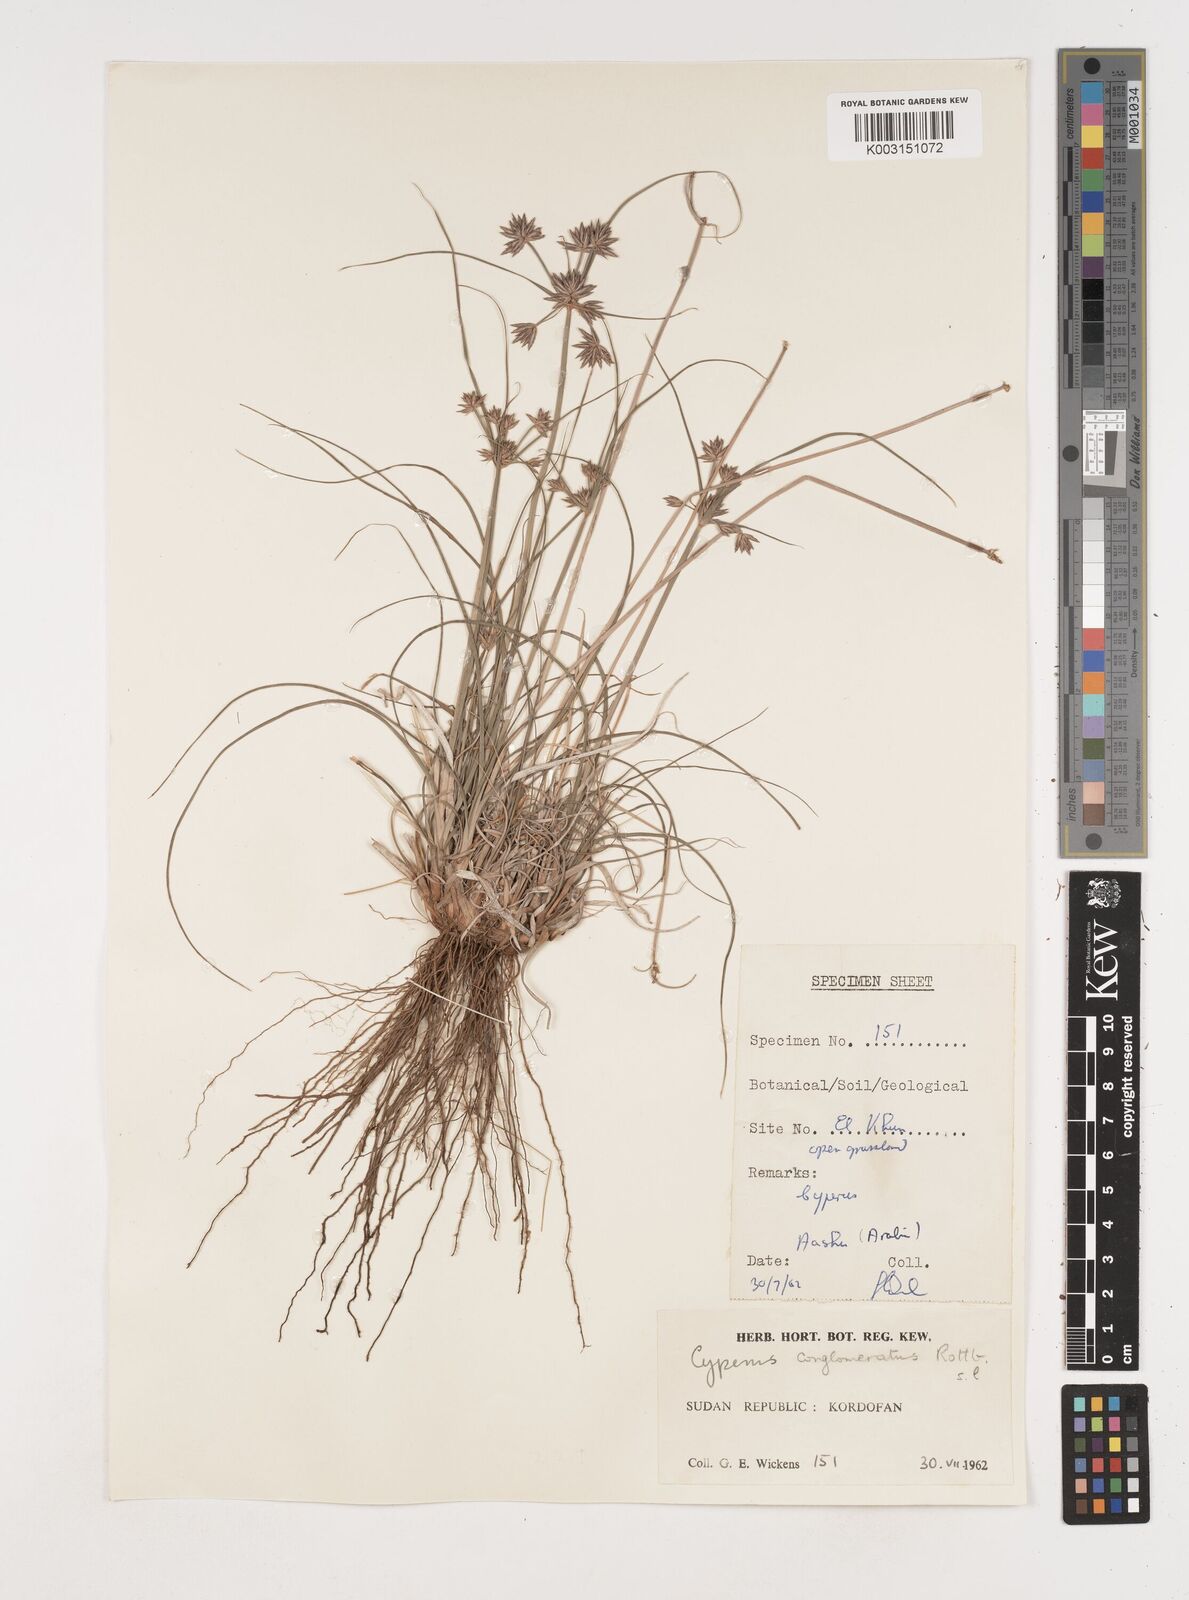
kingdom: Plantae
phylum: Tracheophyta
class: Liliopsida
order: Poales
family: Cyperaceae
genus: Cyperus
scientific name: Cyperus jeminicus
